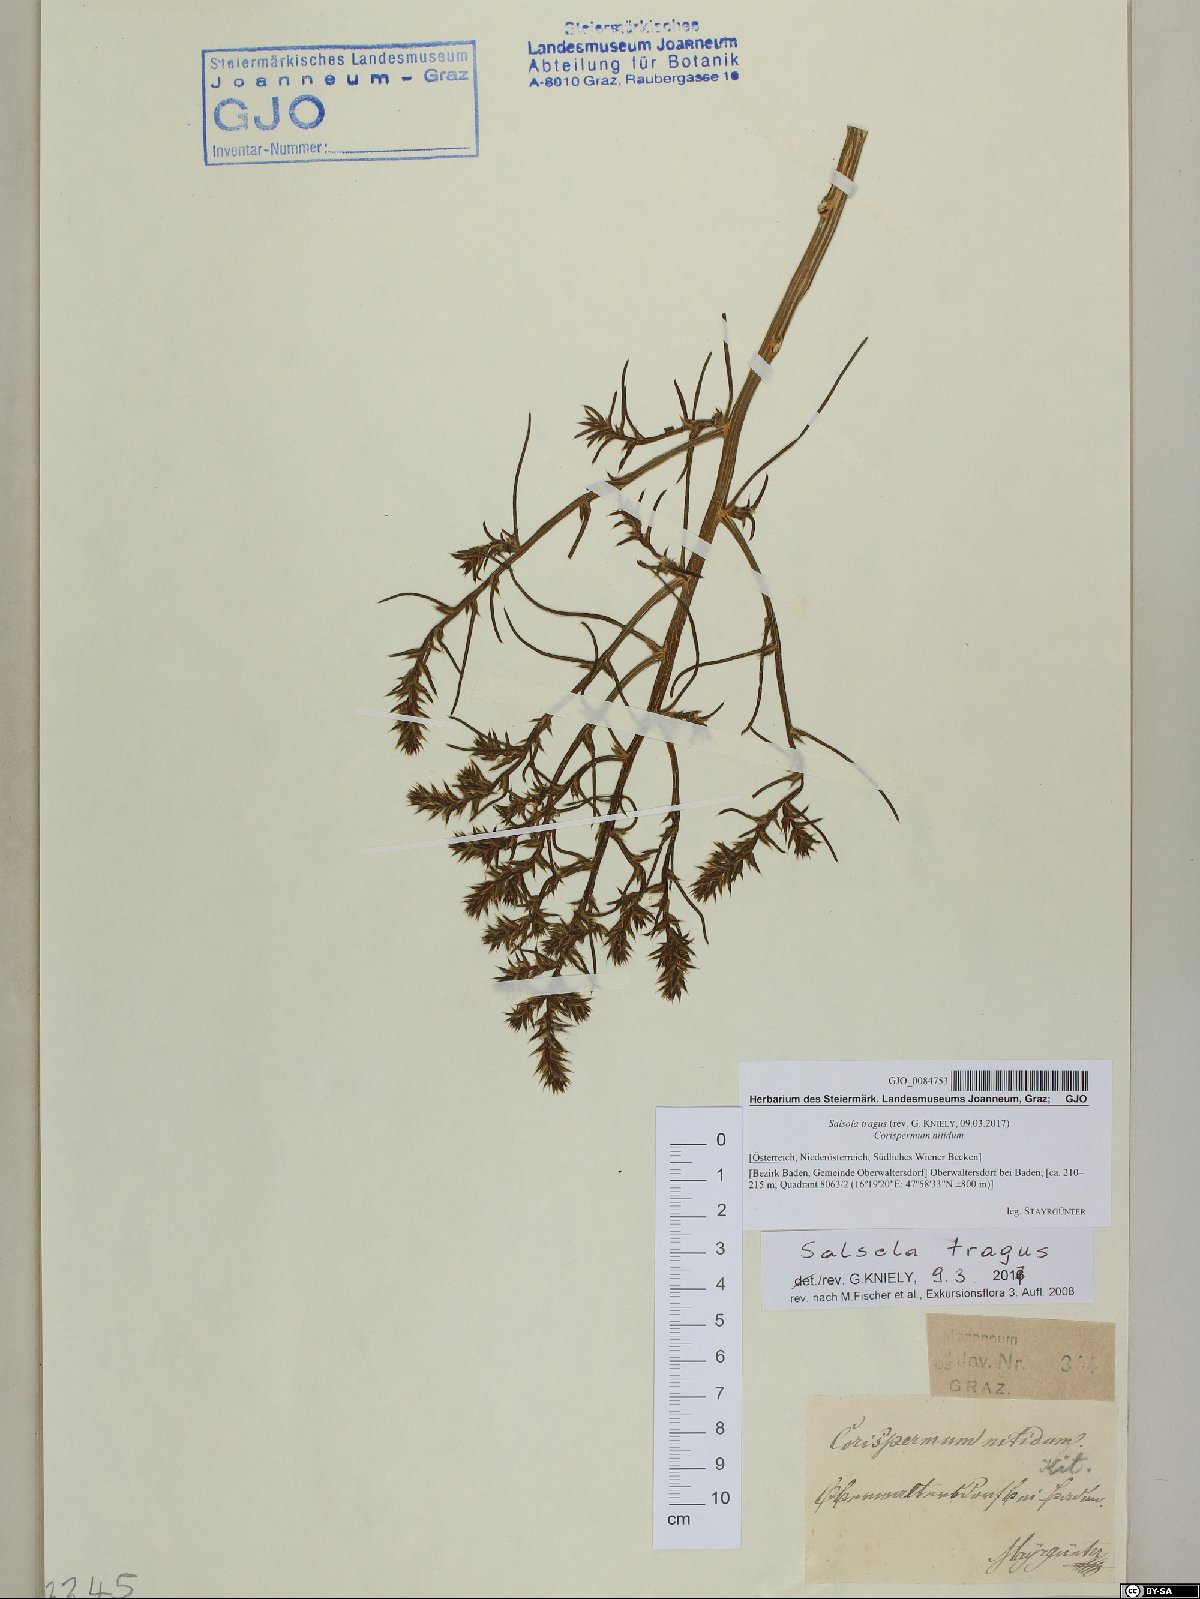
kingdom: Plantae
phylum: Tracheophyta
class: Magnoliopsida
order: Caryophyllales
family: Amaranthaceae
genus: Salsola
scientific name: Salsola tragus
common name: Prickly russian thistle
